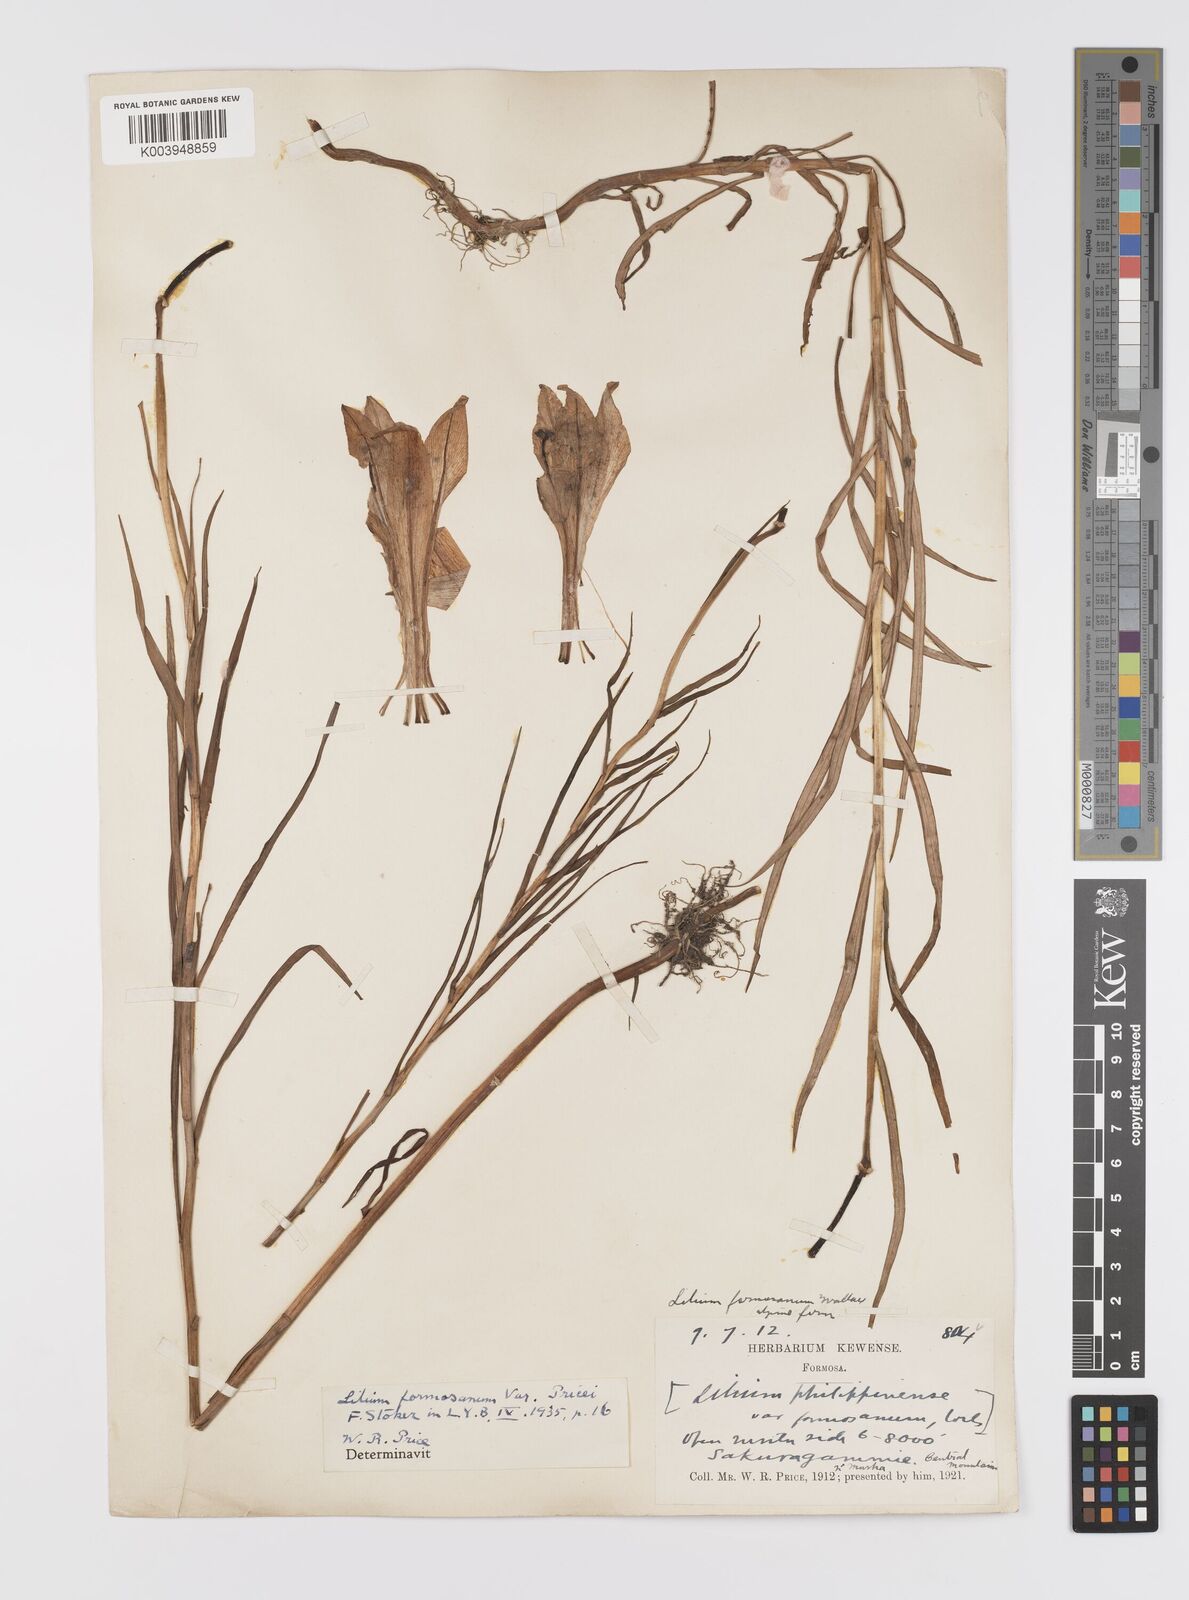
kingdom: Plantae
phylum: Tracheophyta
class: Liliopsida
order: Liliales
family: Liliaceae
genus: Lilium
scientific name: Lilium formosanum
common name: Formosa lily
